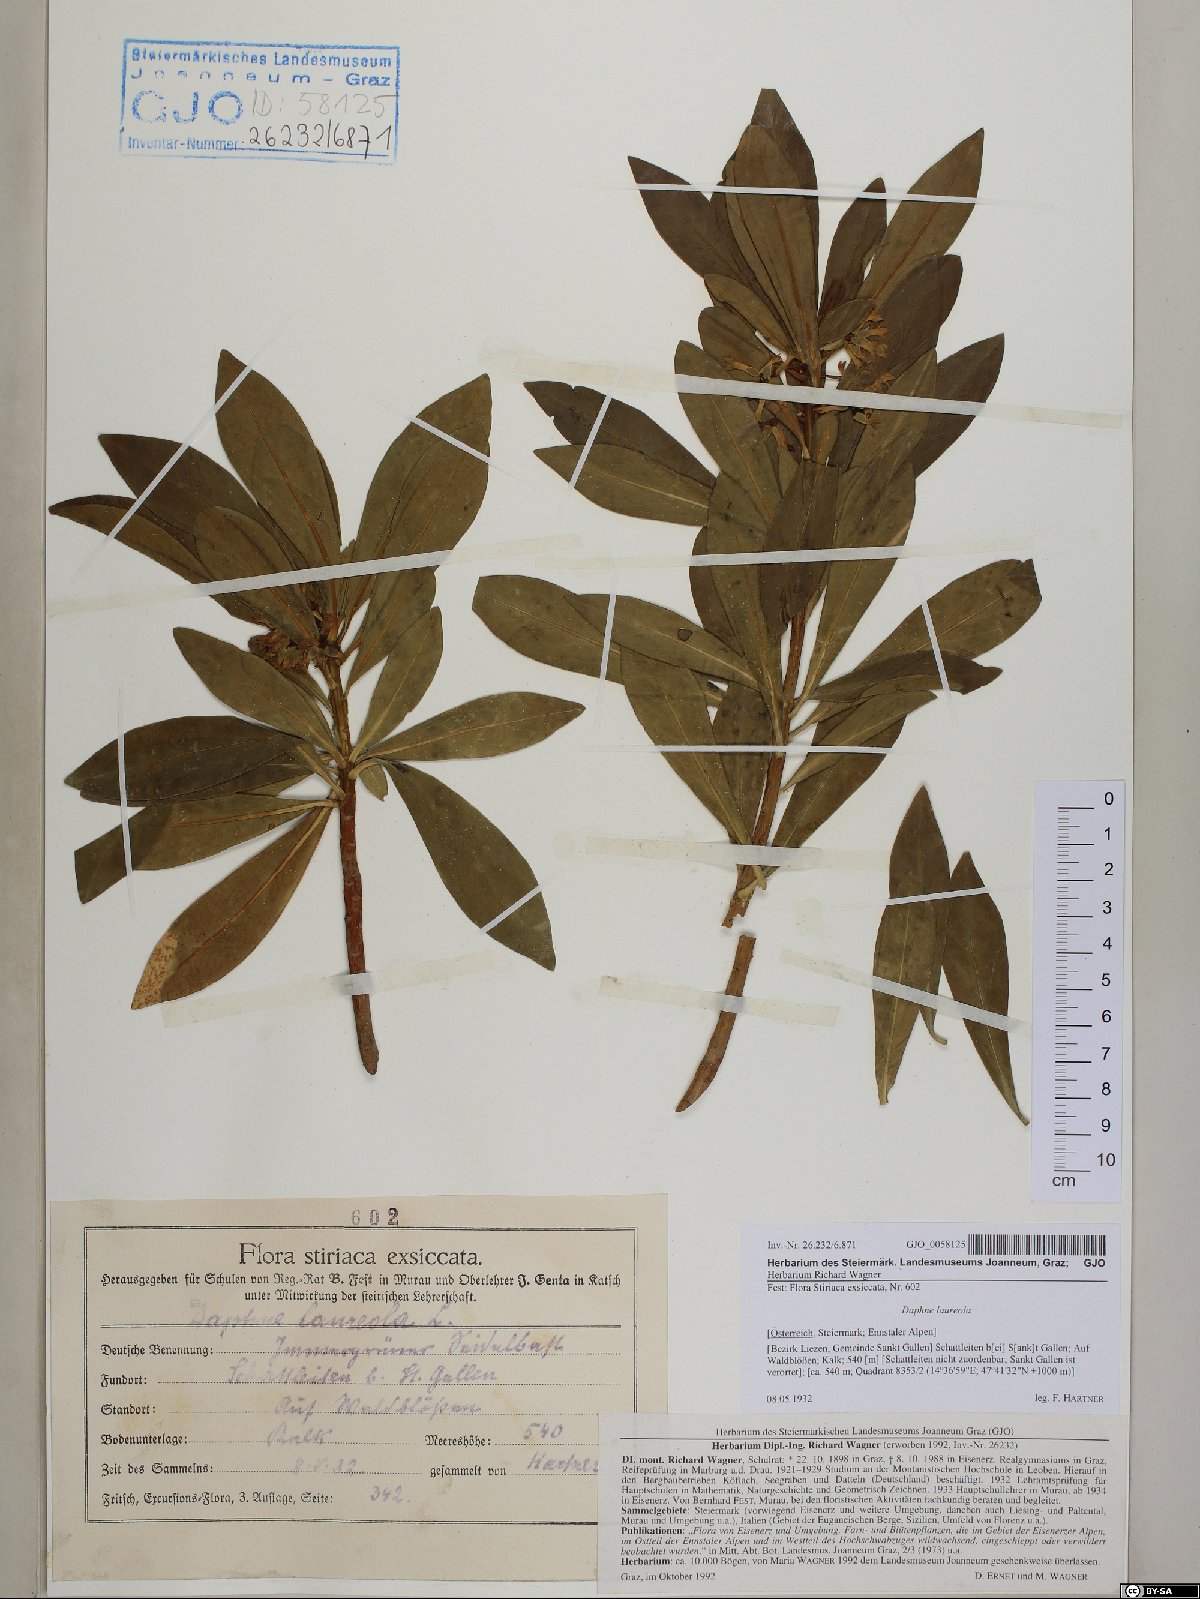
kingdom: Plantae
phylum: Tracheophyta
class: Magnoliopsida
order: Malvales
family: Thymelaeaceae
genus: Daphne
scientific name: Daphne laureola
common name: Spurge-laurel
